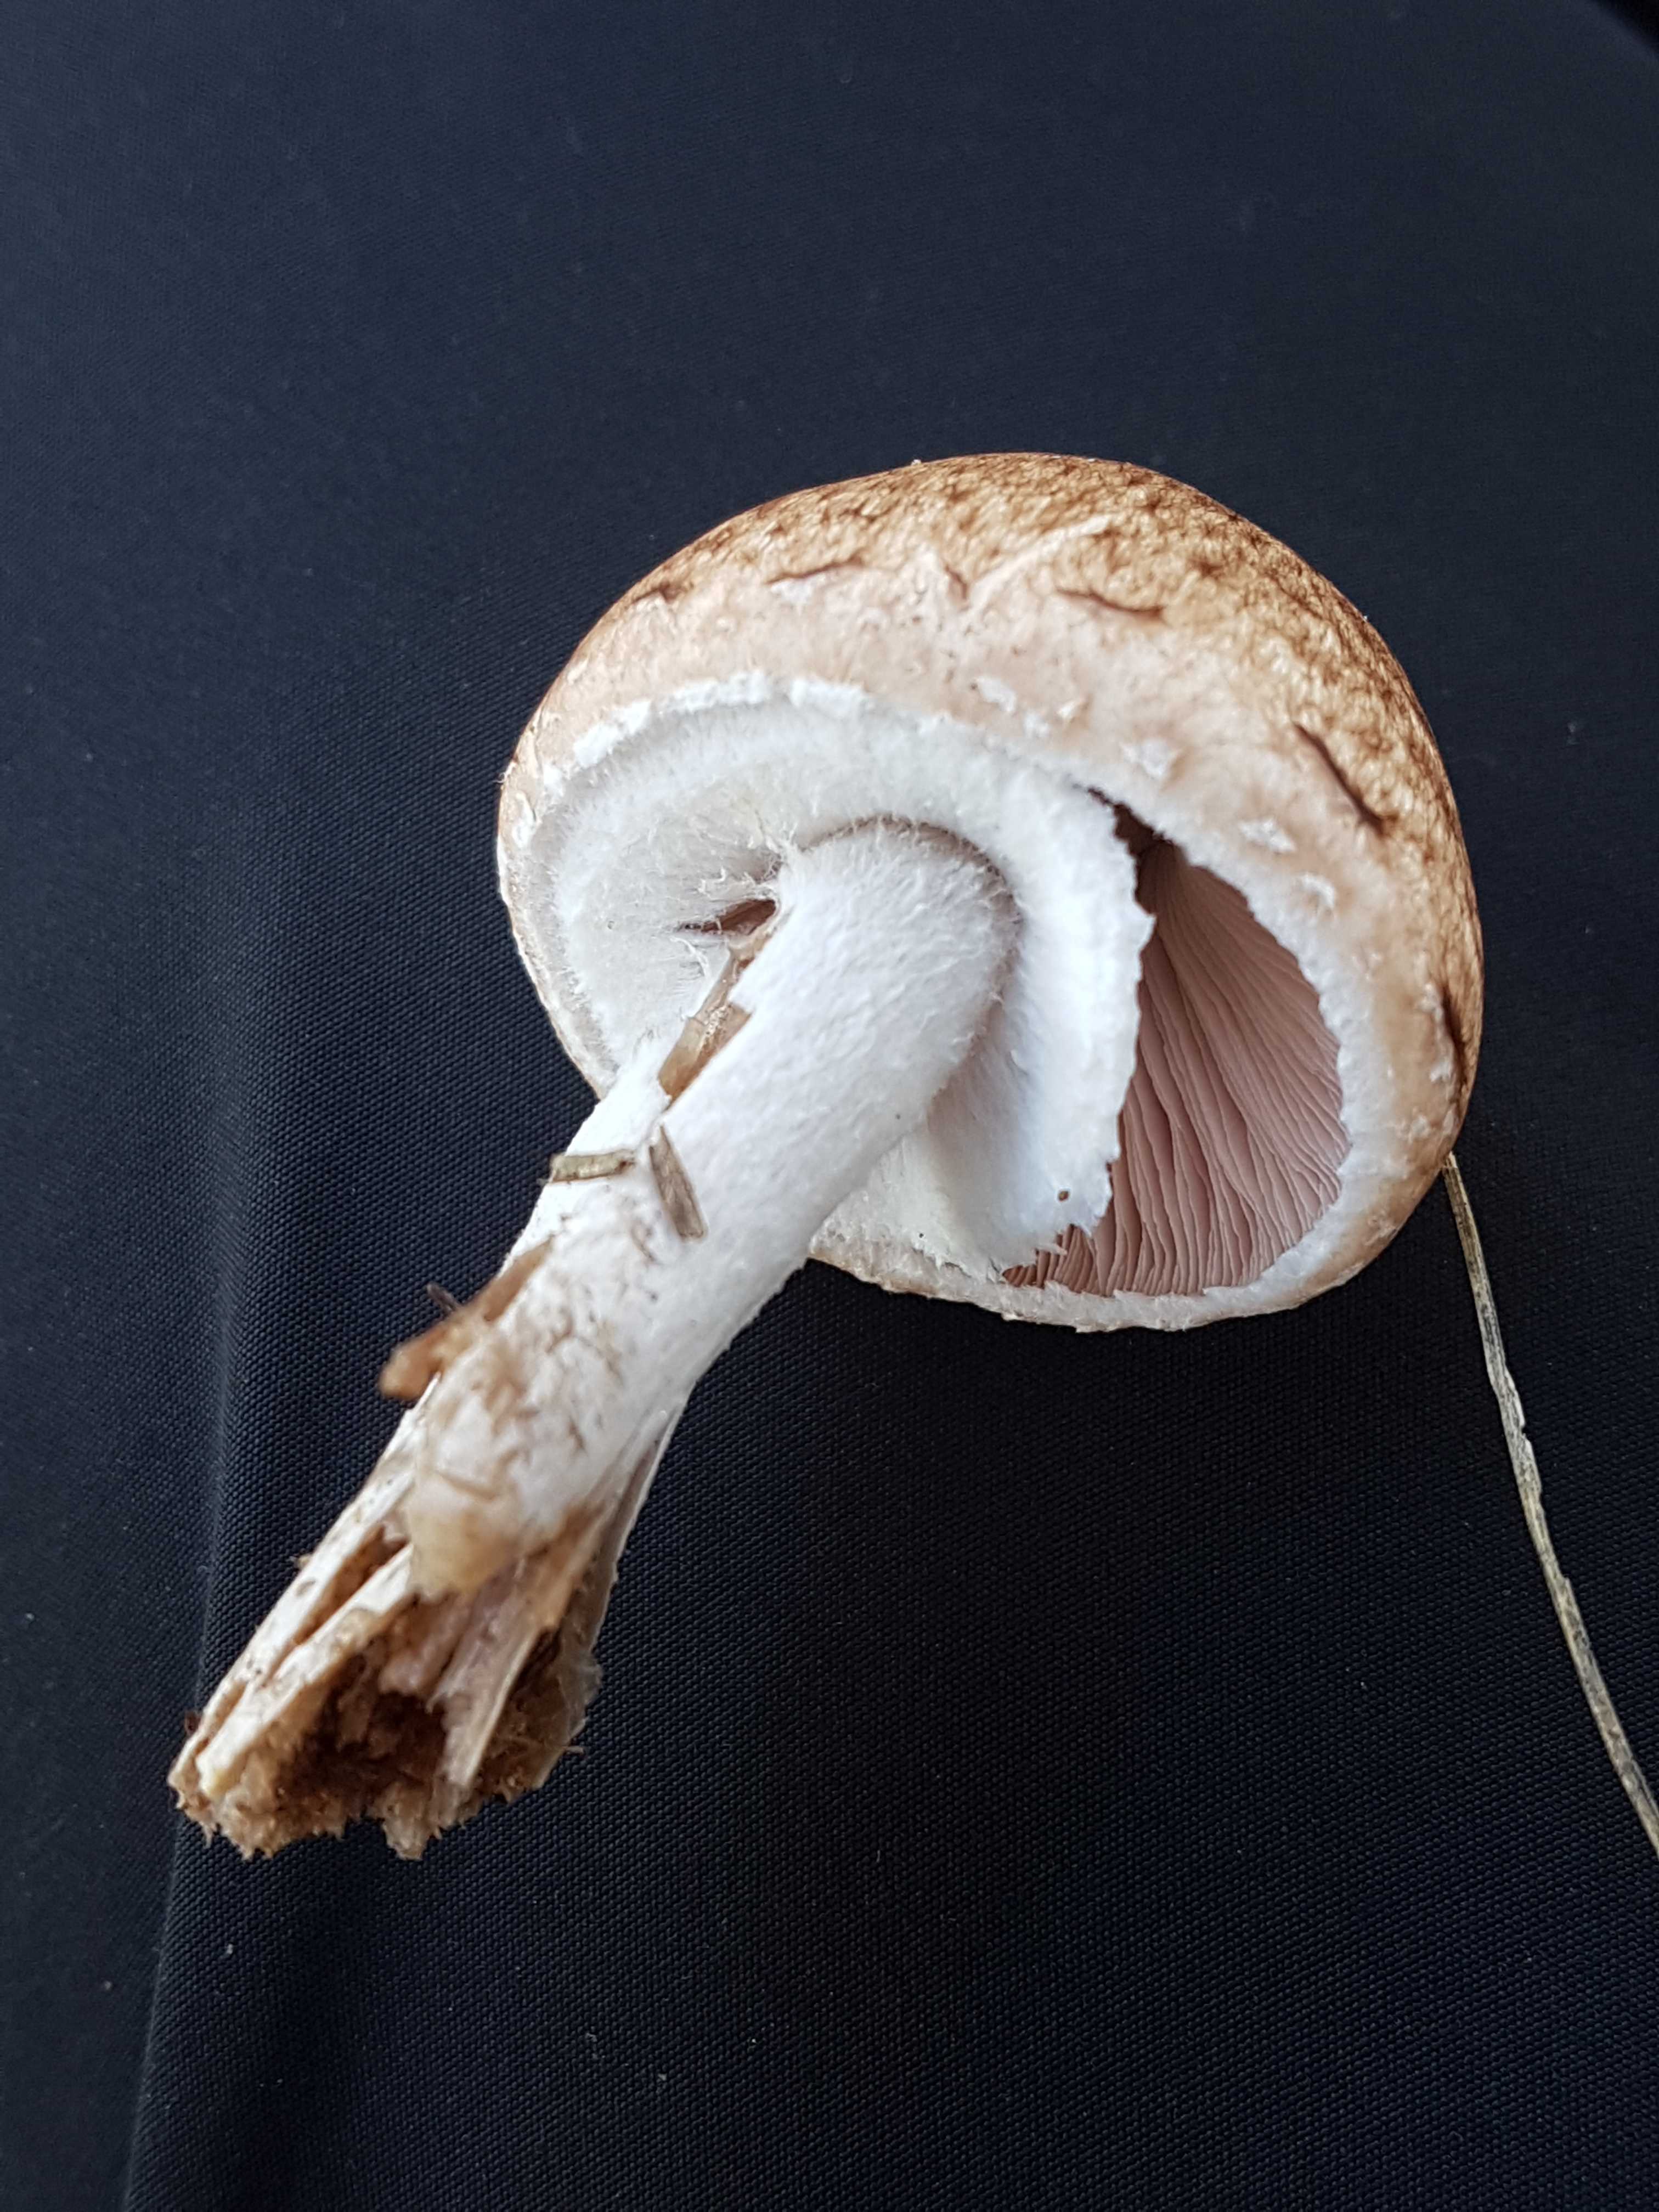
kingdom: Fungi
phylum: Basidiomycota
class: Agaricomycetes
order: Agaricales
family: Agaricaceae
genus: Agaricus
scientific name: Agaricus
